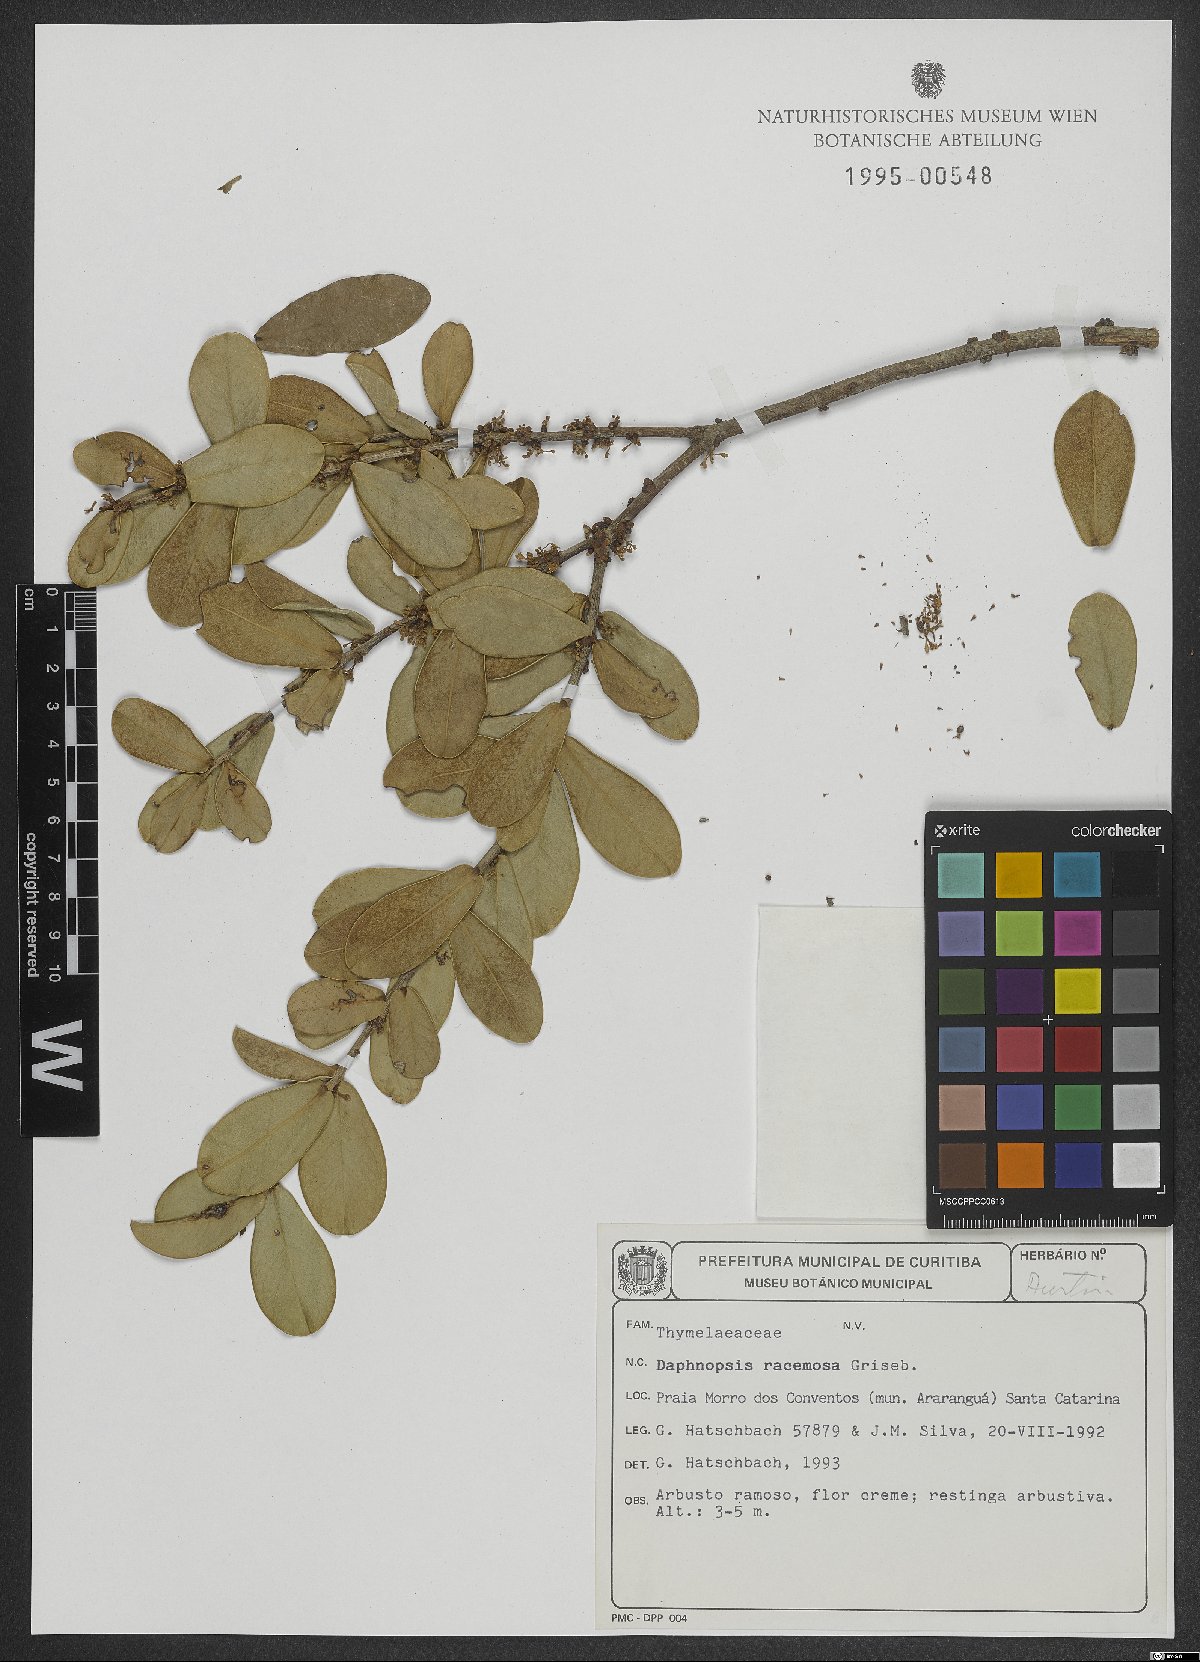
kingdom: Plantae
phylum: Tracheophyta
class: Magnoliopsida
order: Malvales
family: Thymelaeaceae
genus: Daphnopsis
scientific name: Daphnopsis racemosa
